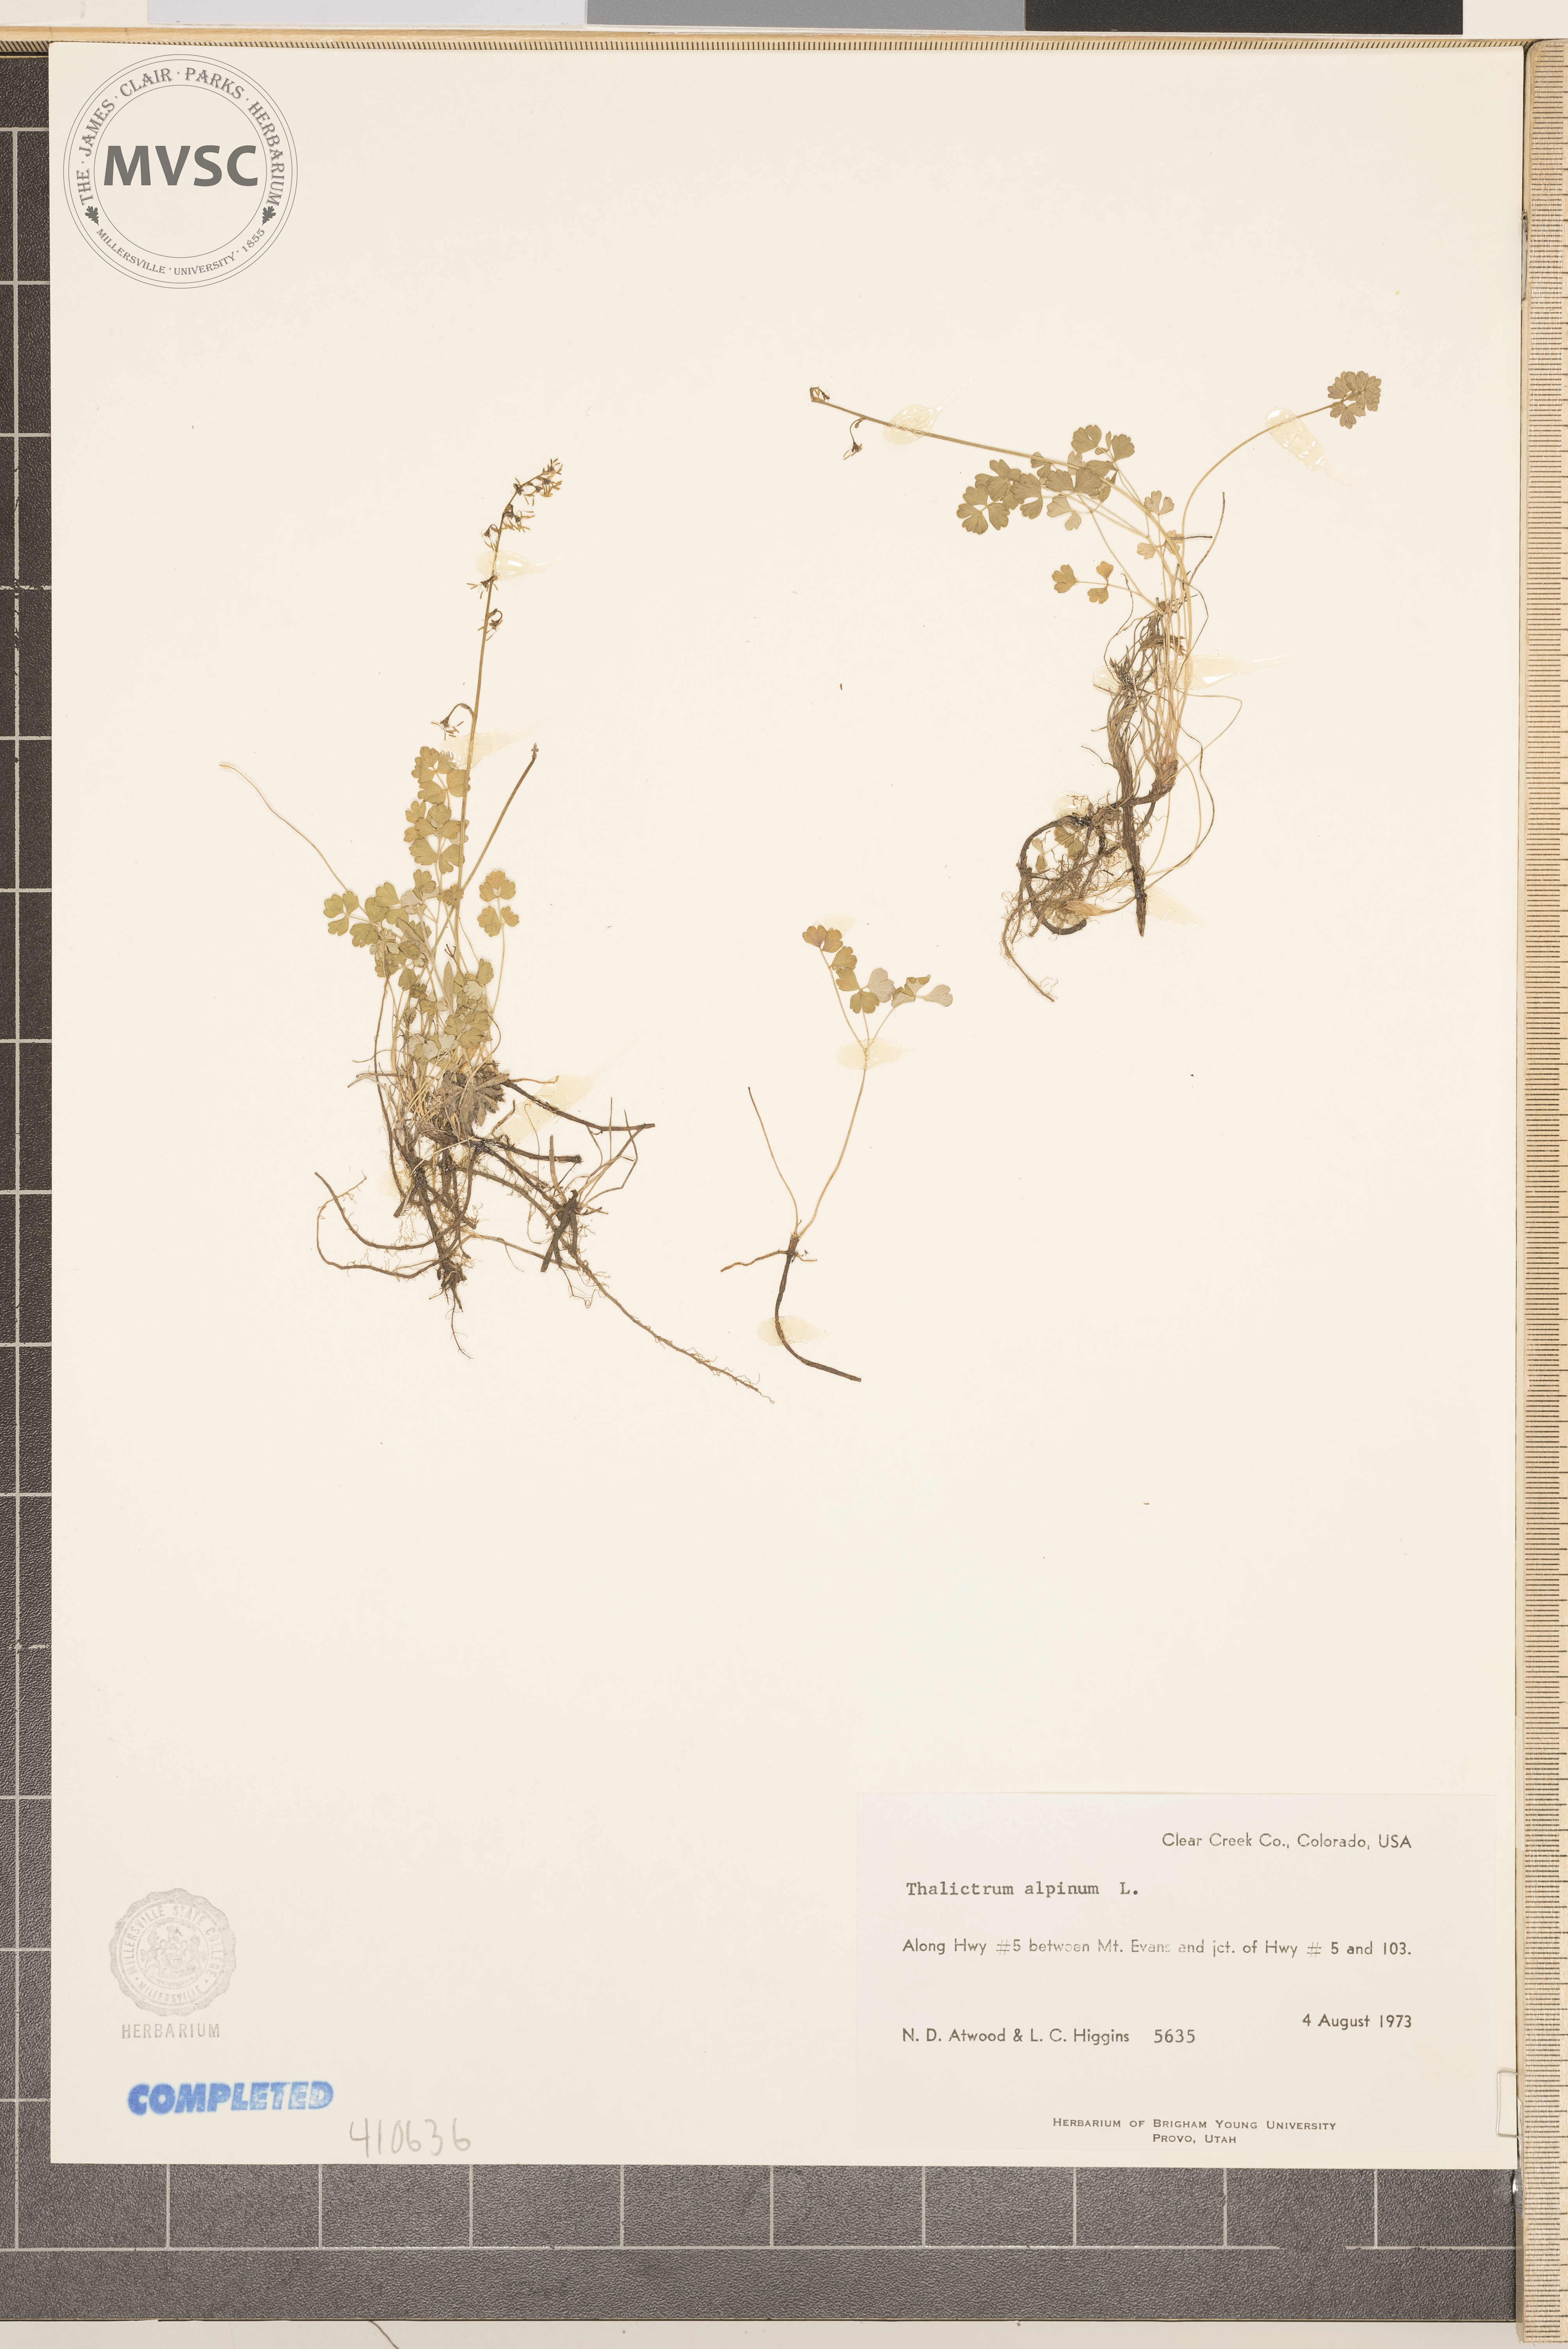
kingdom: Plantae
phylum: Tracheophyta
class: Magnoliopsida
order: Ranunculales
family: Ranunculaceae
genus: Thalictrum
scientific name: Thalictrum alpinum
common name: Alpine meadow-rue
